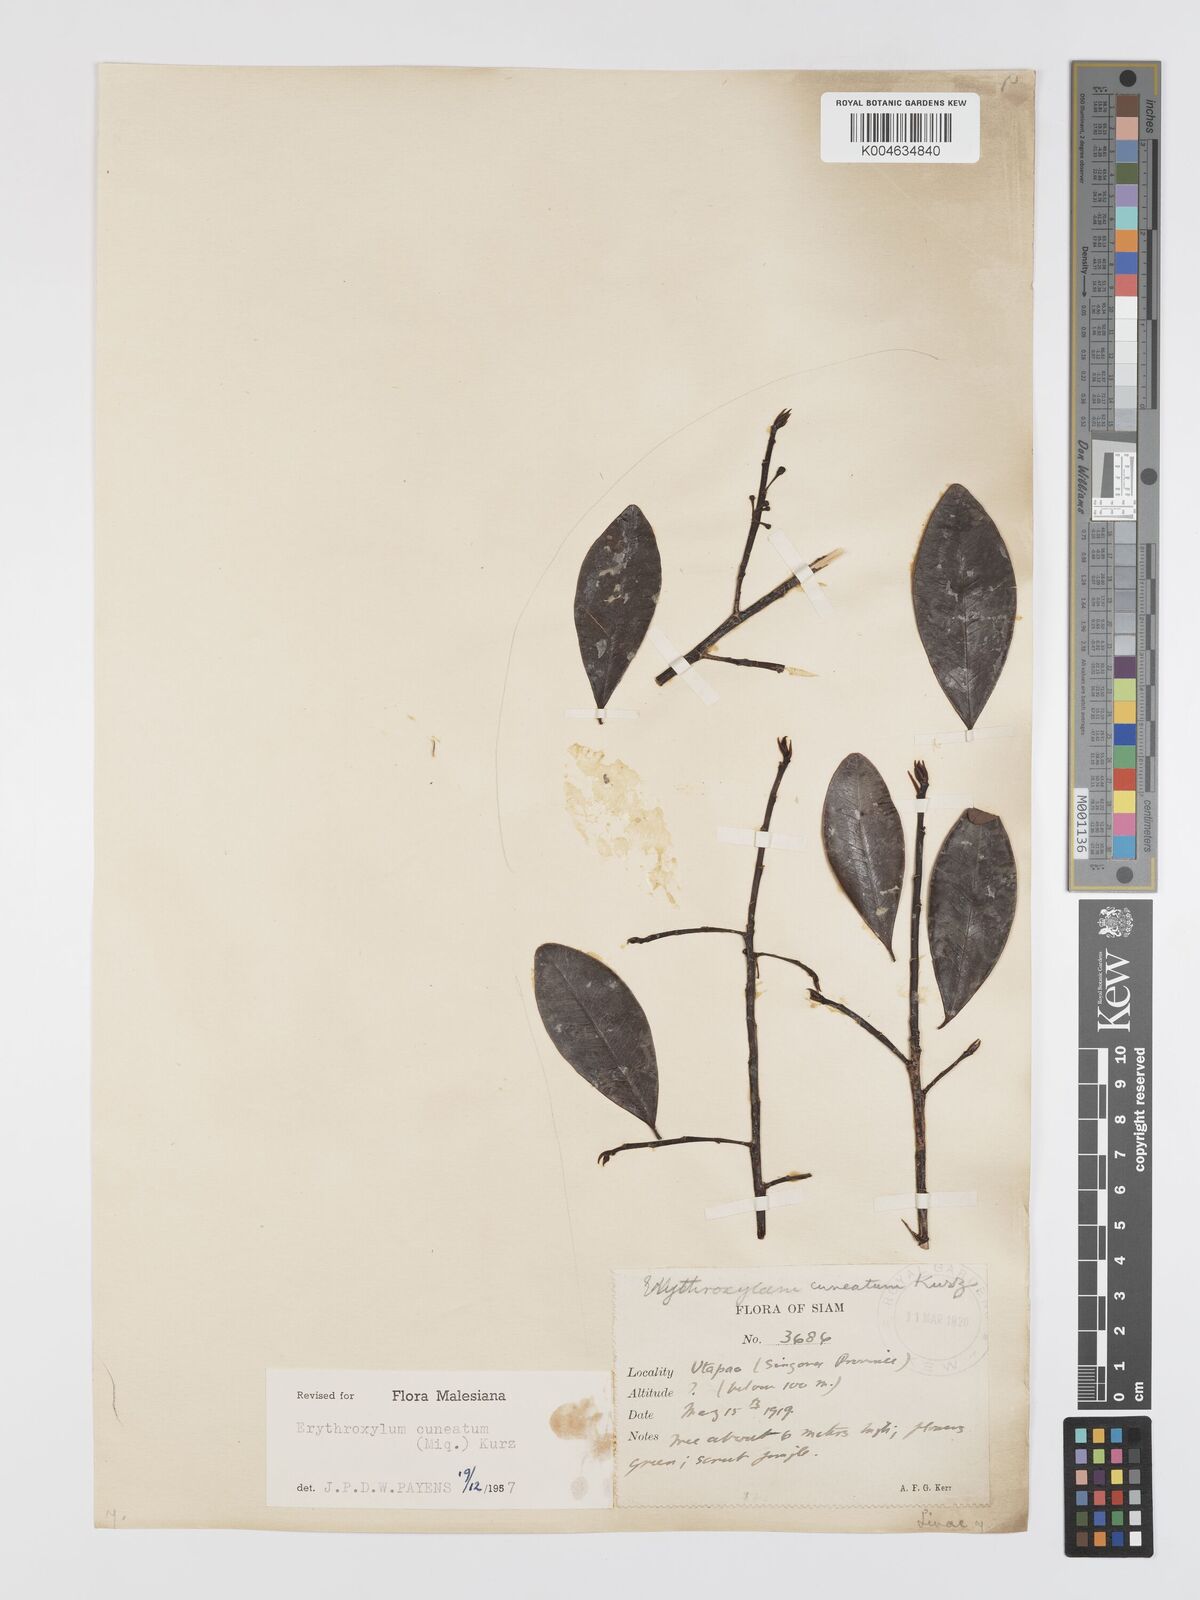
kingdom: Plantae
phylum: Tracheophyta
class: Magnoliopsida
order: Malpighiales
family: Erythroxylaceae
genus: Erythroxylum
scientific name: Erythroxylum cuneatum
